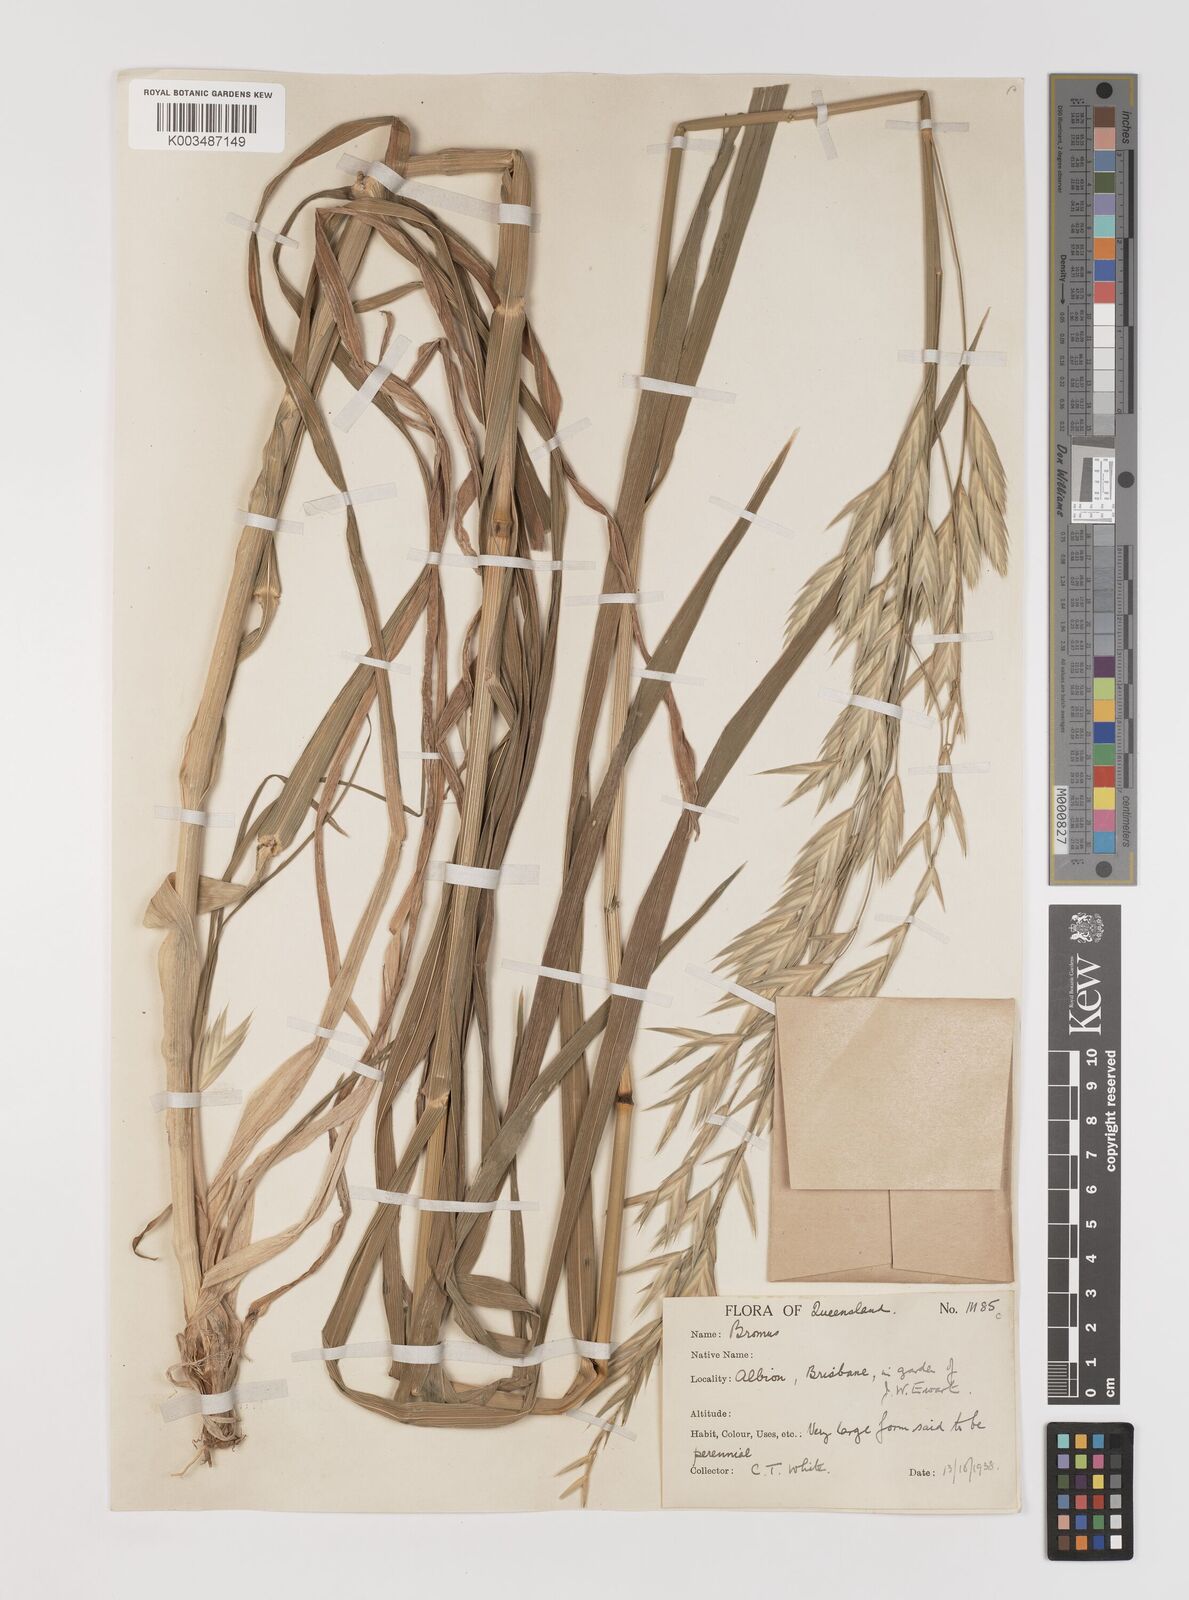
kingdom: Plantae
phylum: Tracheophyta
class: Liliopsida
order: Poales
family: Poaceae
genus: Bromus
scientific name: Bromus catharticus
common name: Rescuegrass
